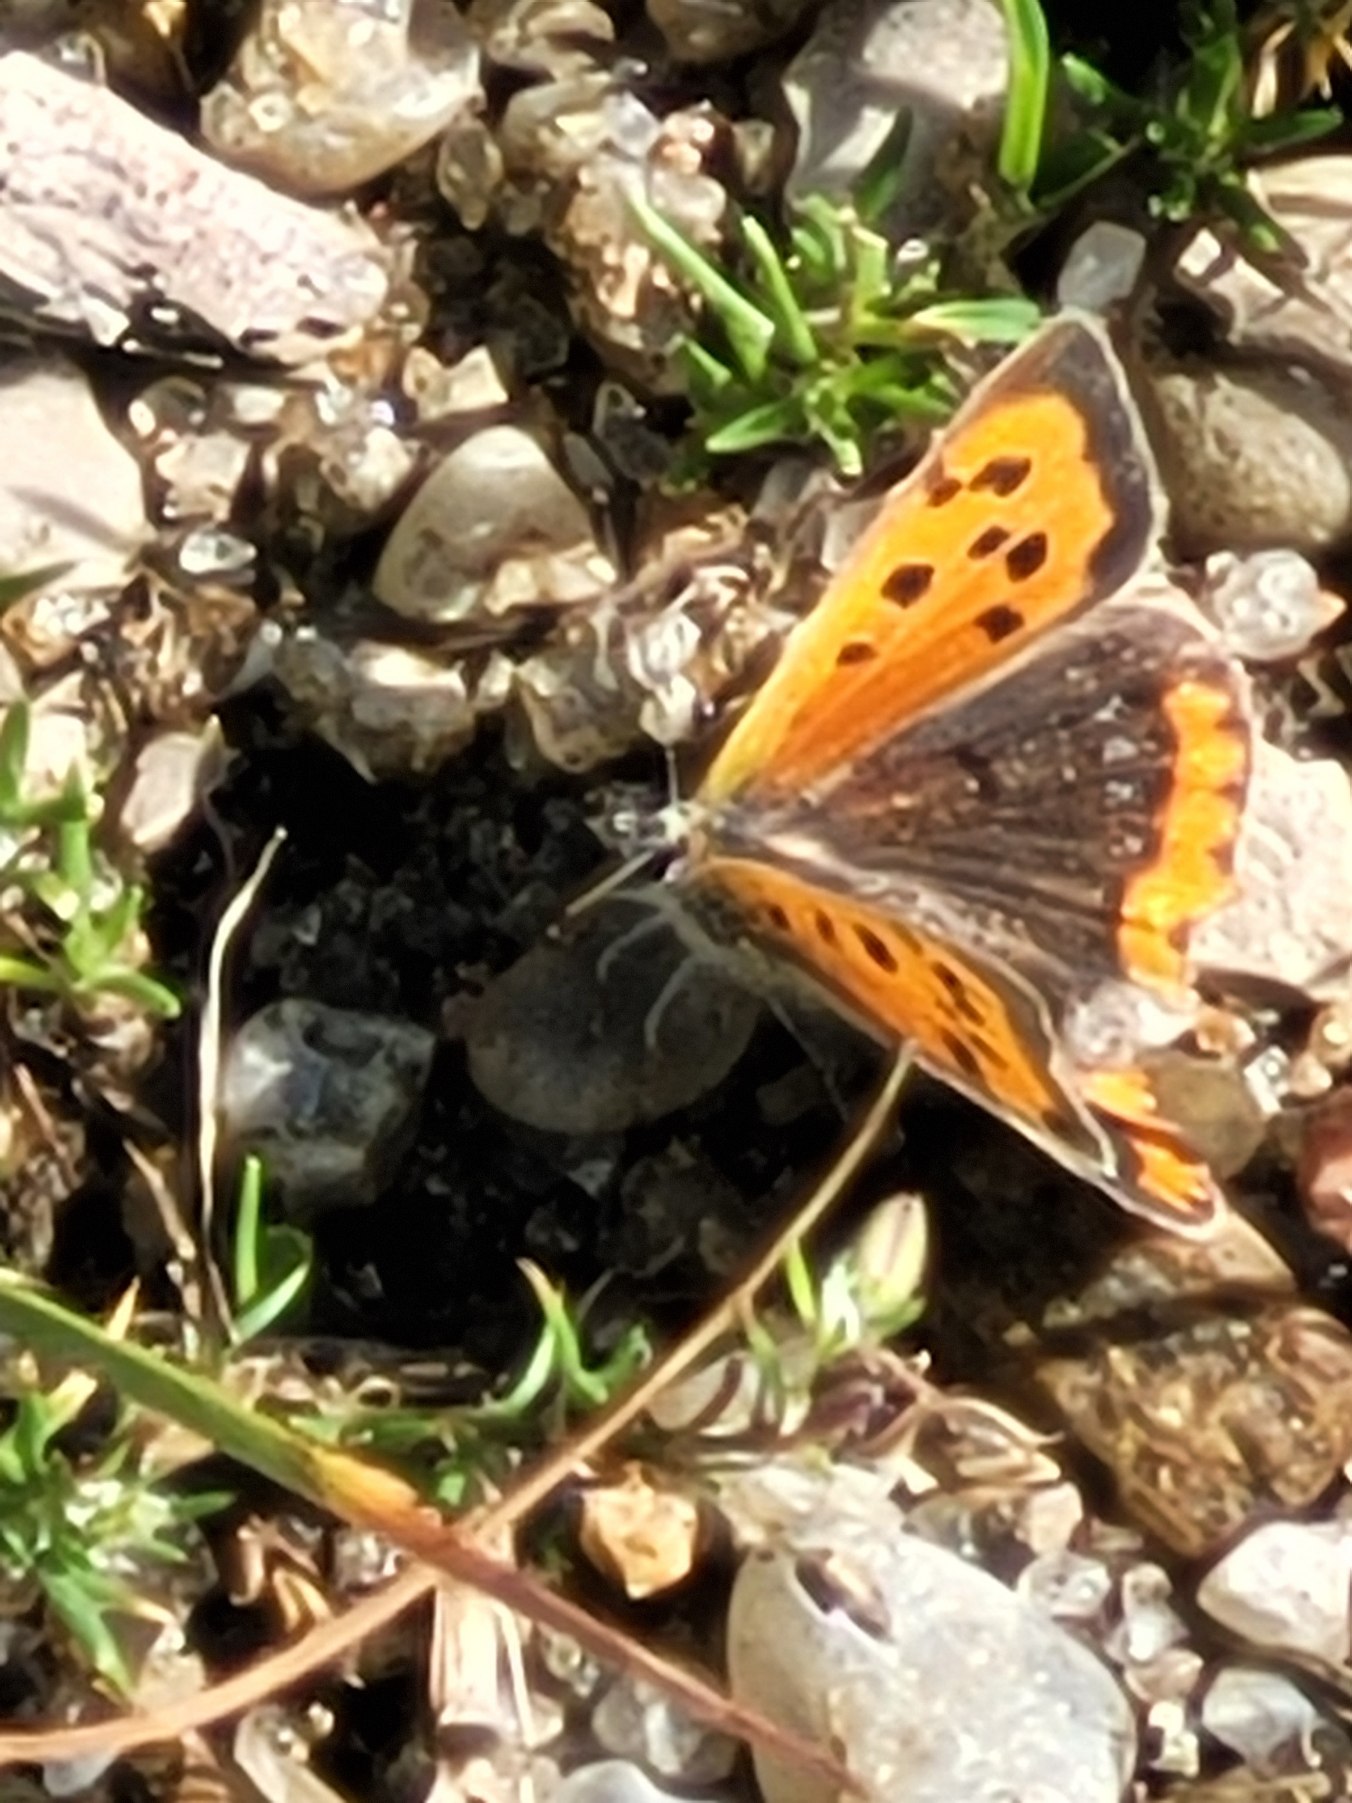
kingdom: Animalia
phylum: Arthropoda
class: Insecta
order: Lepidoptera
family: Lycaenidae
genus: Lycaena
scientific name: Lycaena phlaeas
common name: Lille ildfugl
